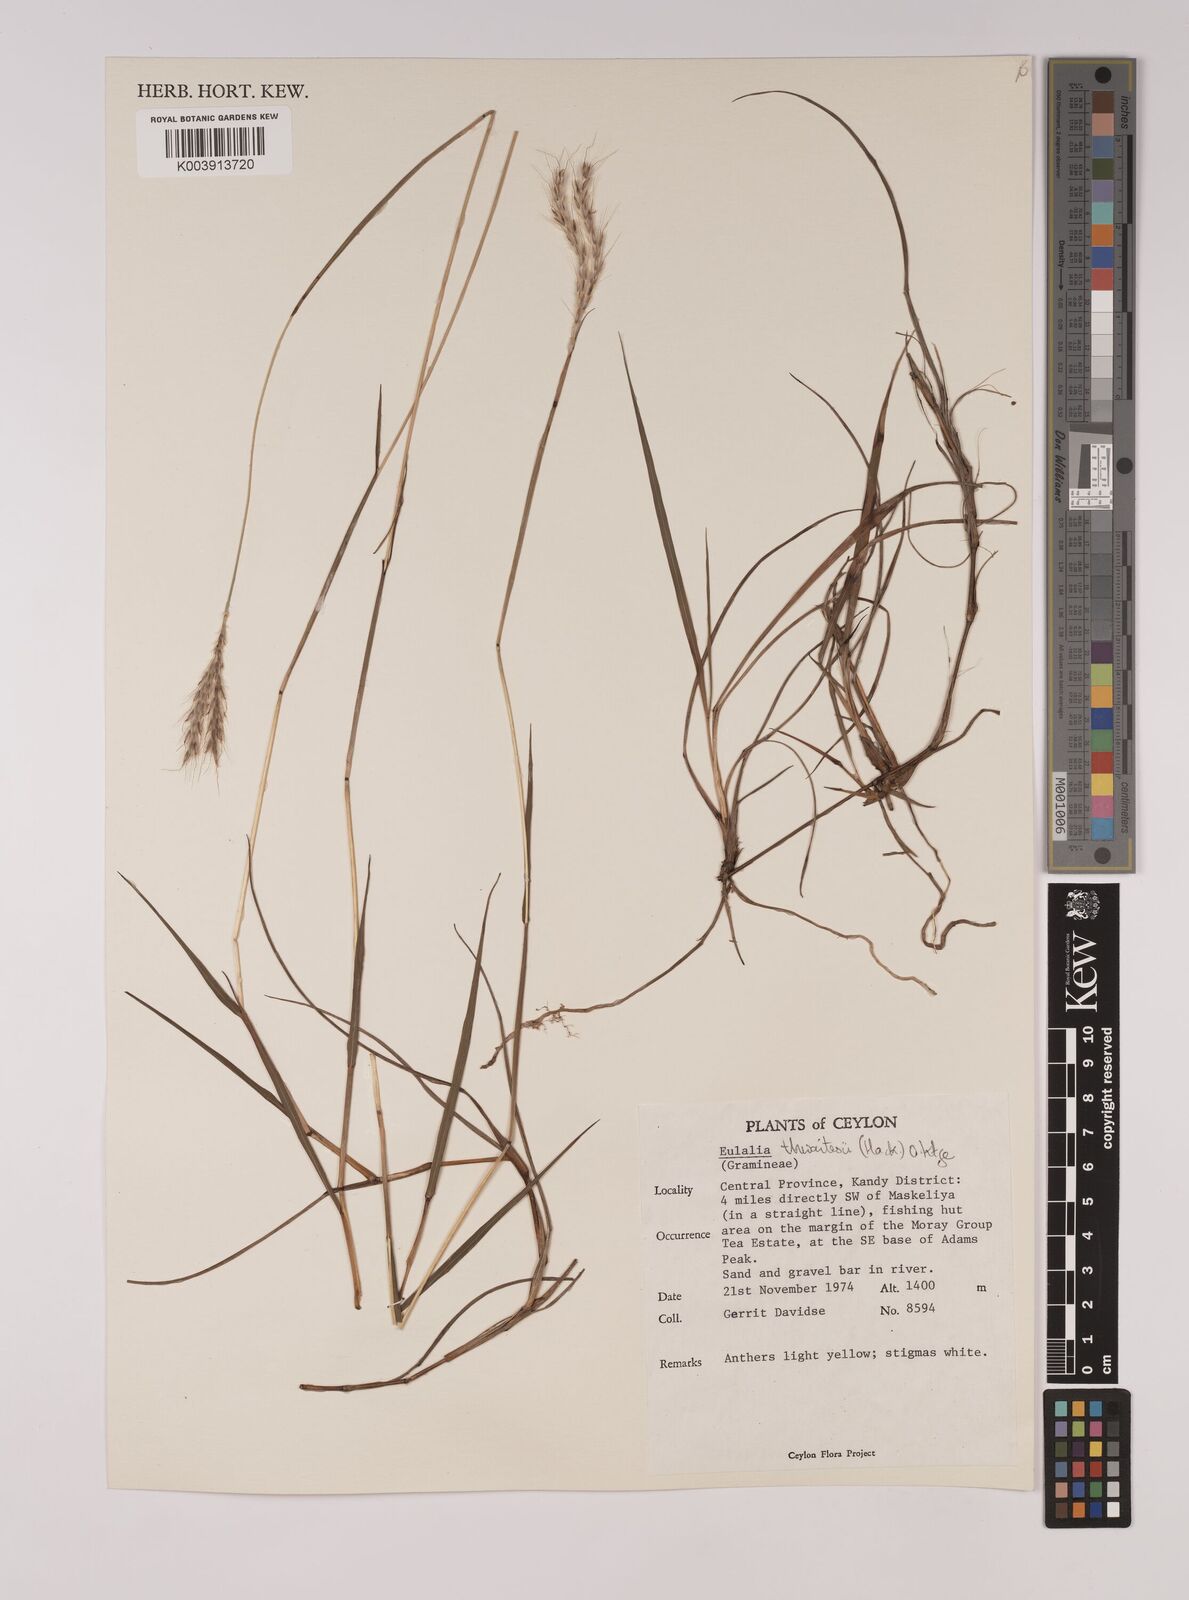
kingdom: Plantae
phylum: Tracheophyta
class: Liliopsida
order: Poales
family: Poaceae
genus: Eulalia
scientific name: Eulalia thwaitesii
